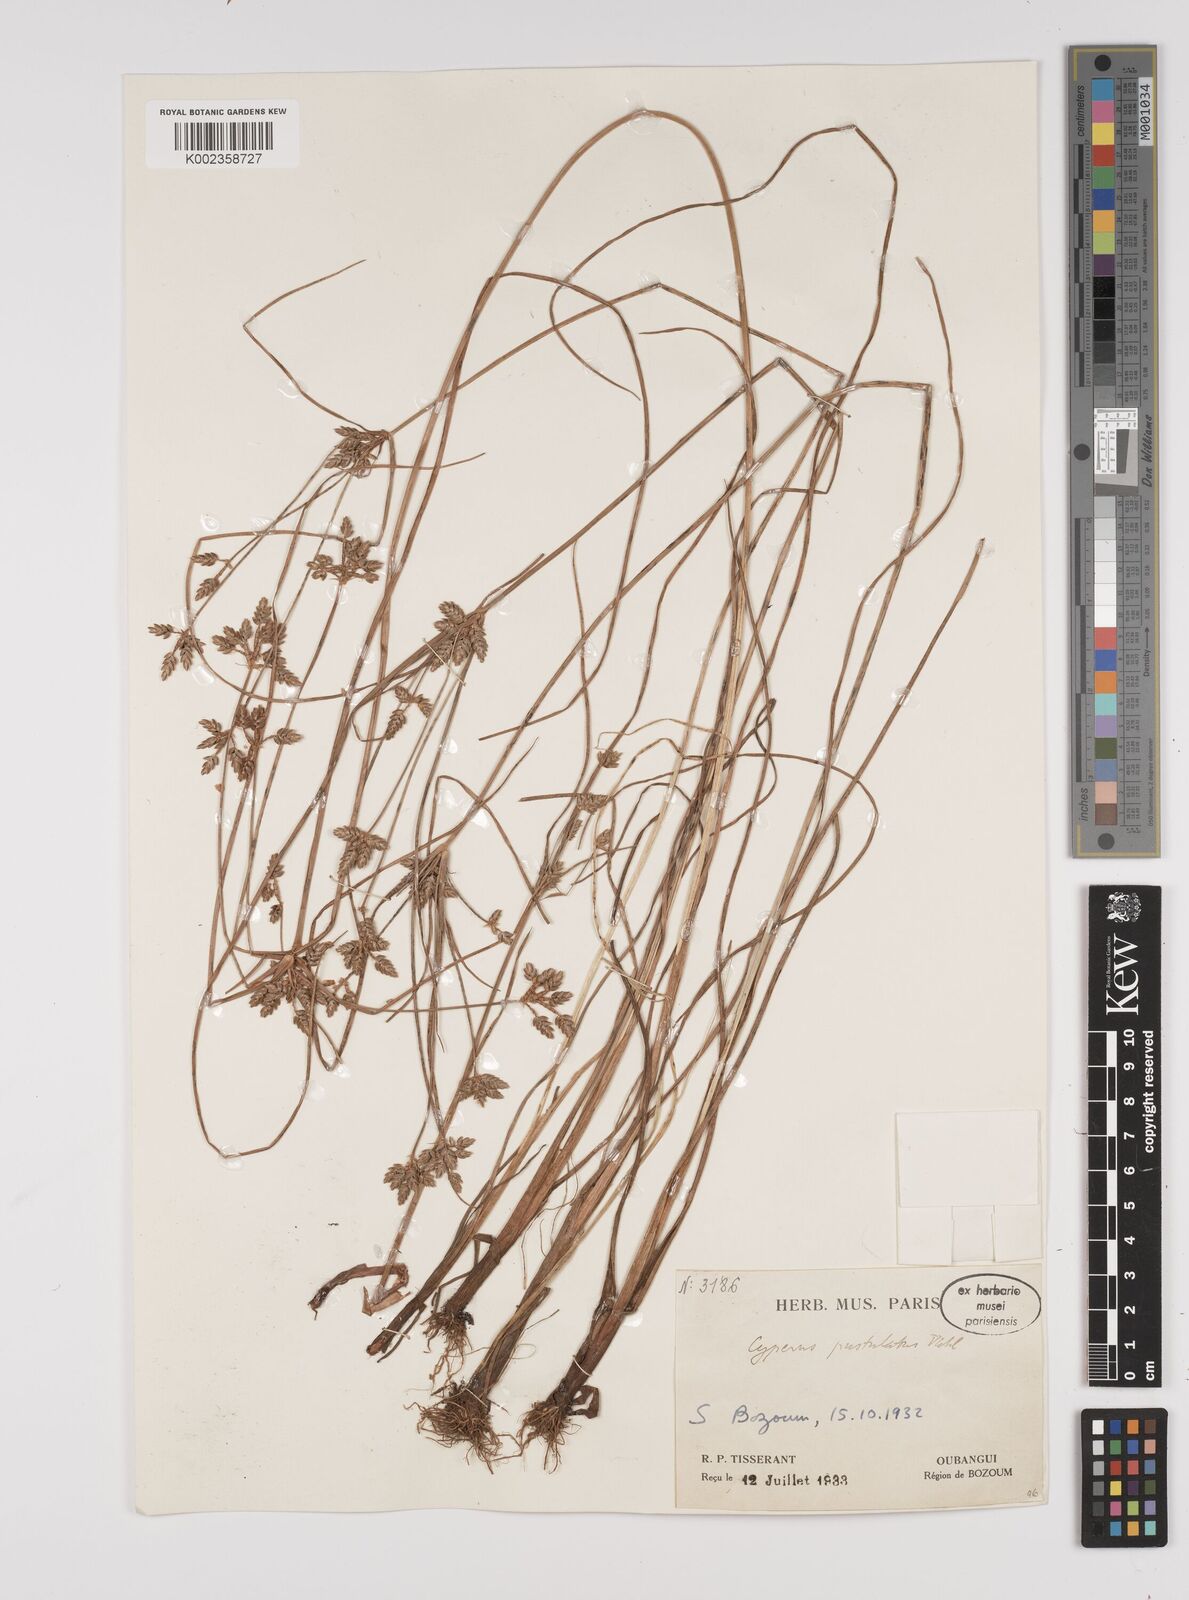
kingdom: Plantae
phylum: Tracheophyta
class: Liliopsida
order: Poales
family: Cyperaceae
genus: Cyperus
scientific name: Cyperus pustulatus
